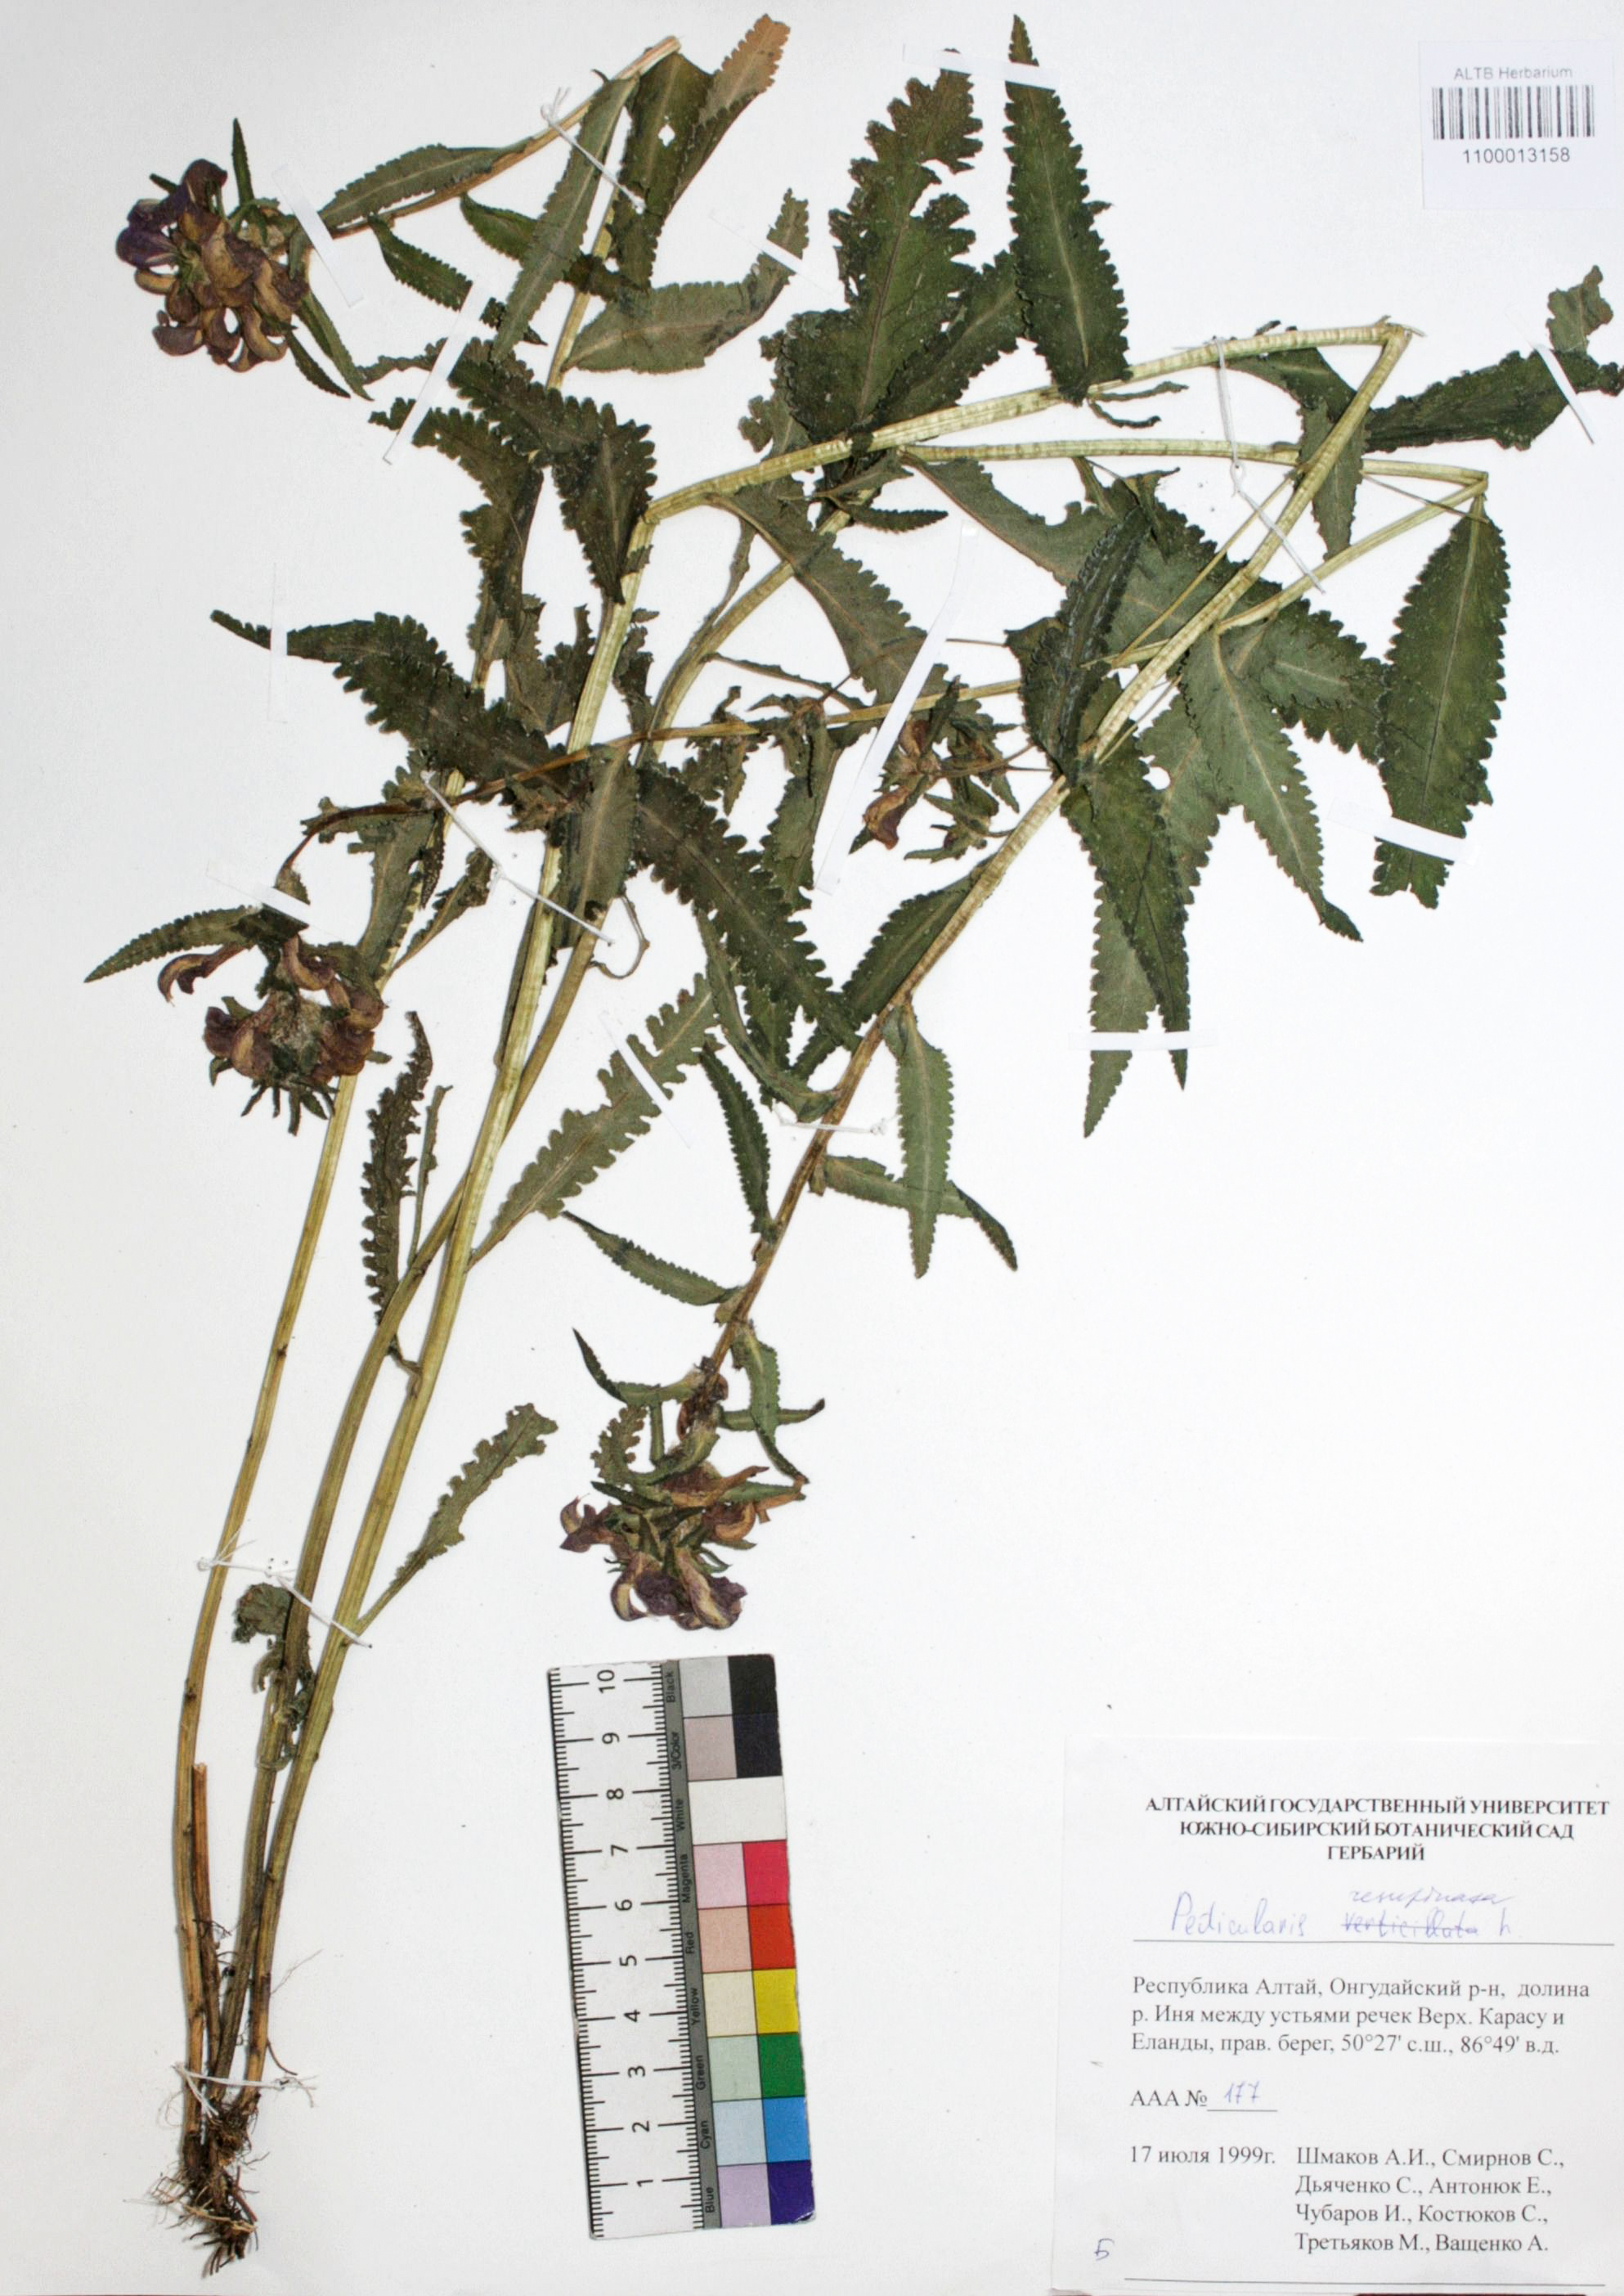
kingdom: Plantae
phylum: Tracheophyta
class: Magnoliopsida
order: Lamiales
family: Orobanchaceae
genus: Pedicularis
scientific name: Pedicularis resupinata
